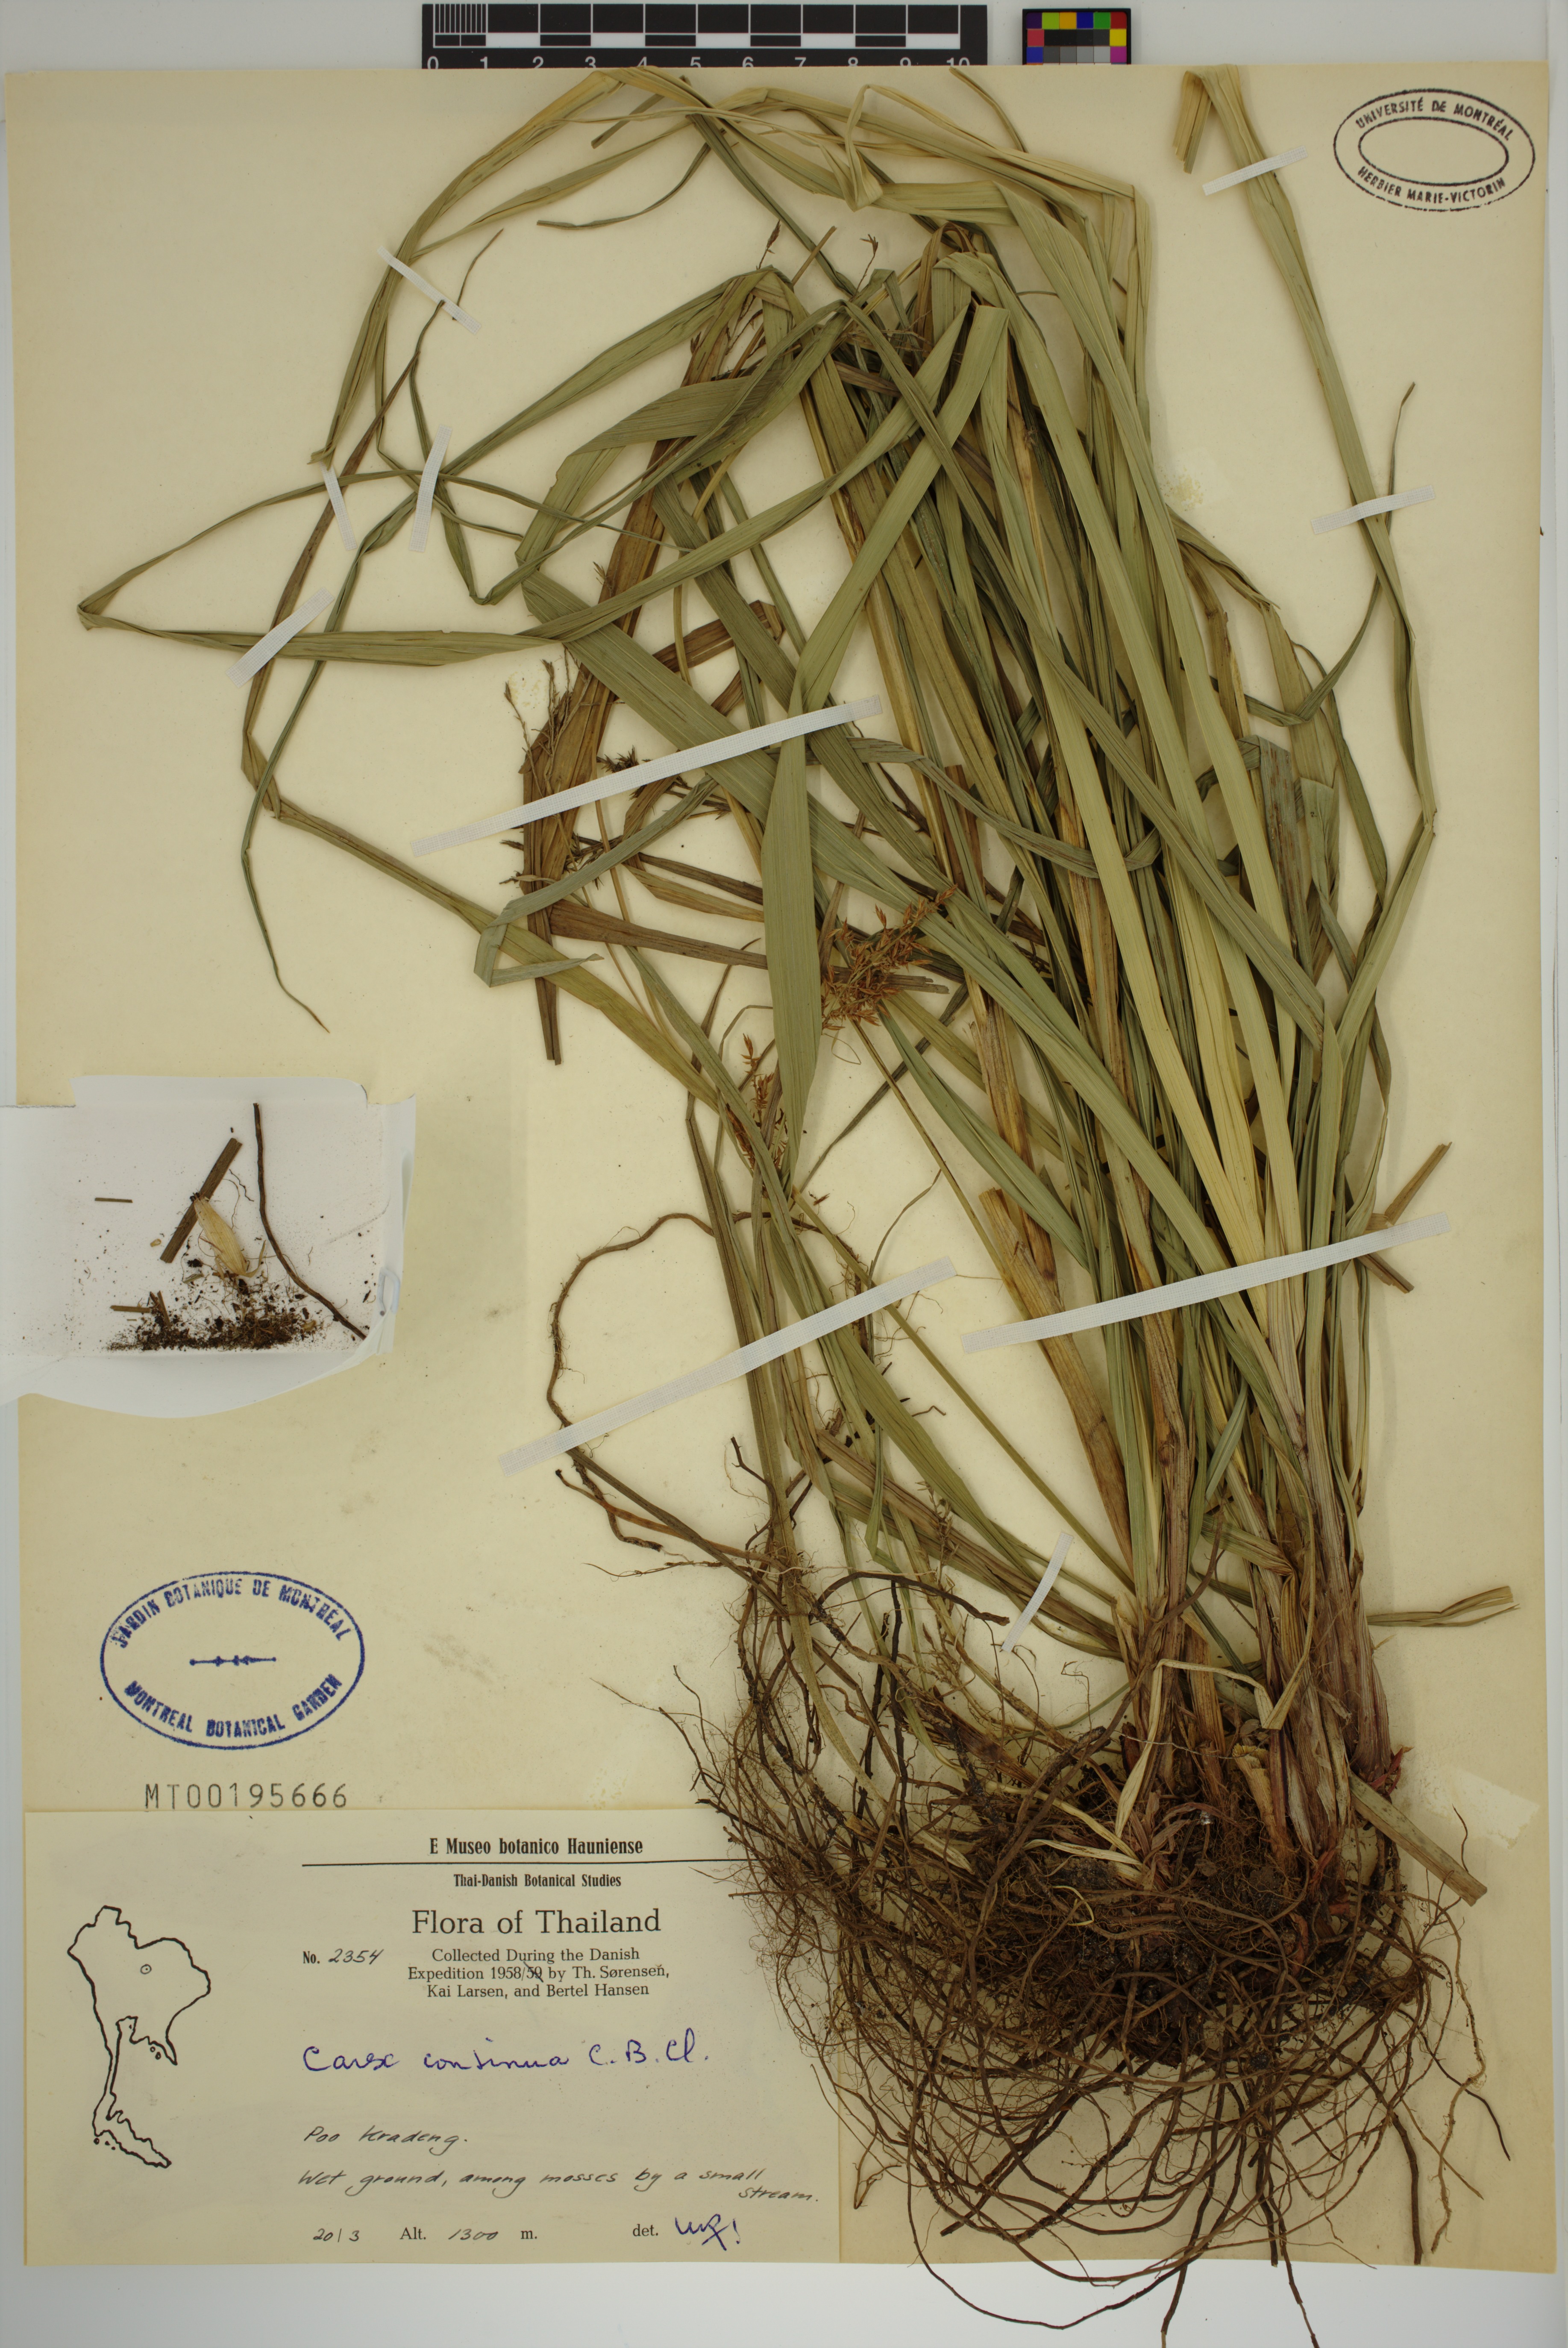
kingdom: Plantae
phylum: Tracheophyta
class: Liliopsida
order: Poales
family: Cyperaceae
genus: Carex
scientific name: Carex continua
